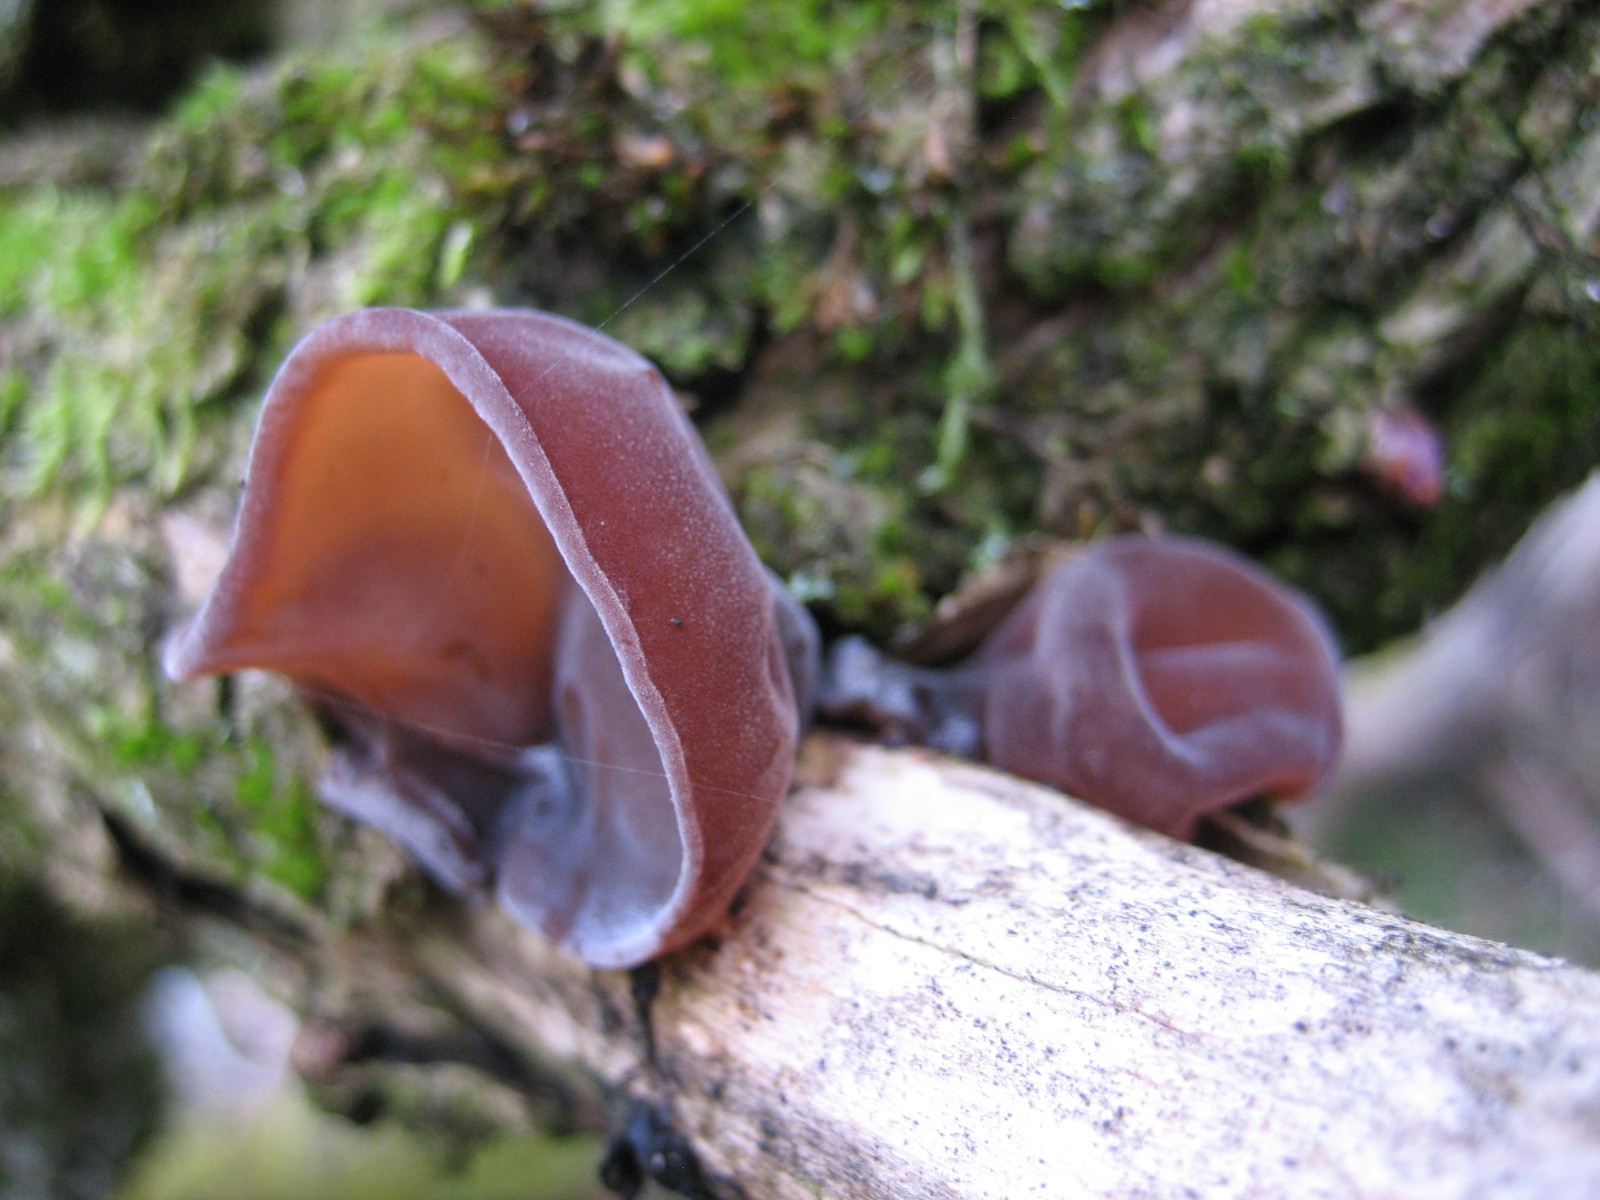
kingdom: Fungi
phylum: Basidiomycota
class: Agaricomycetes
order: Auriculariales
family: Auriculariaceae
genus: Auricularia
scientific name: Auricularia auricula-judae
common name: almindelig judasøre
